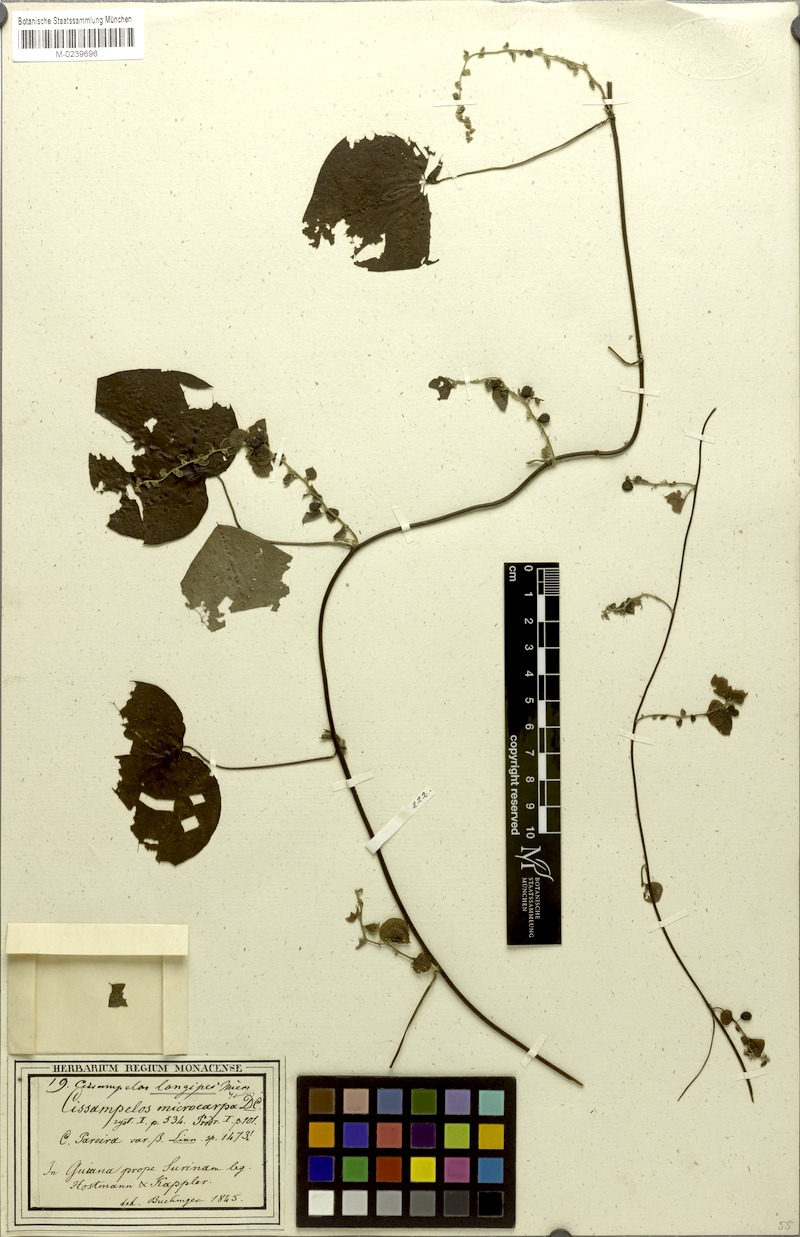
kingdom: Plantae
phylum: Tracheophyta
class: Magnoliopsida
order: Ranunculales
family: Menispermaceae
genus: Cissampelos
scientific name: Cissampelos pareira
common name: Velvetleaf
